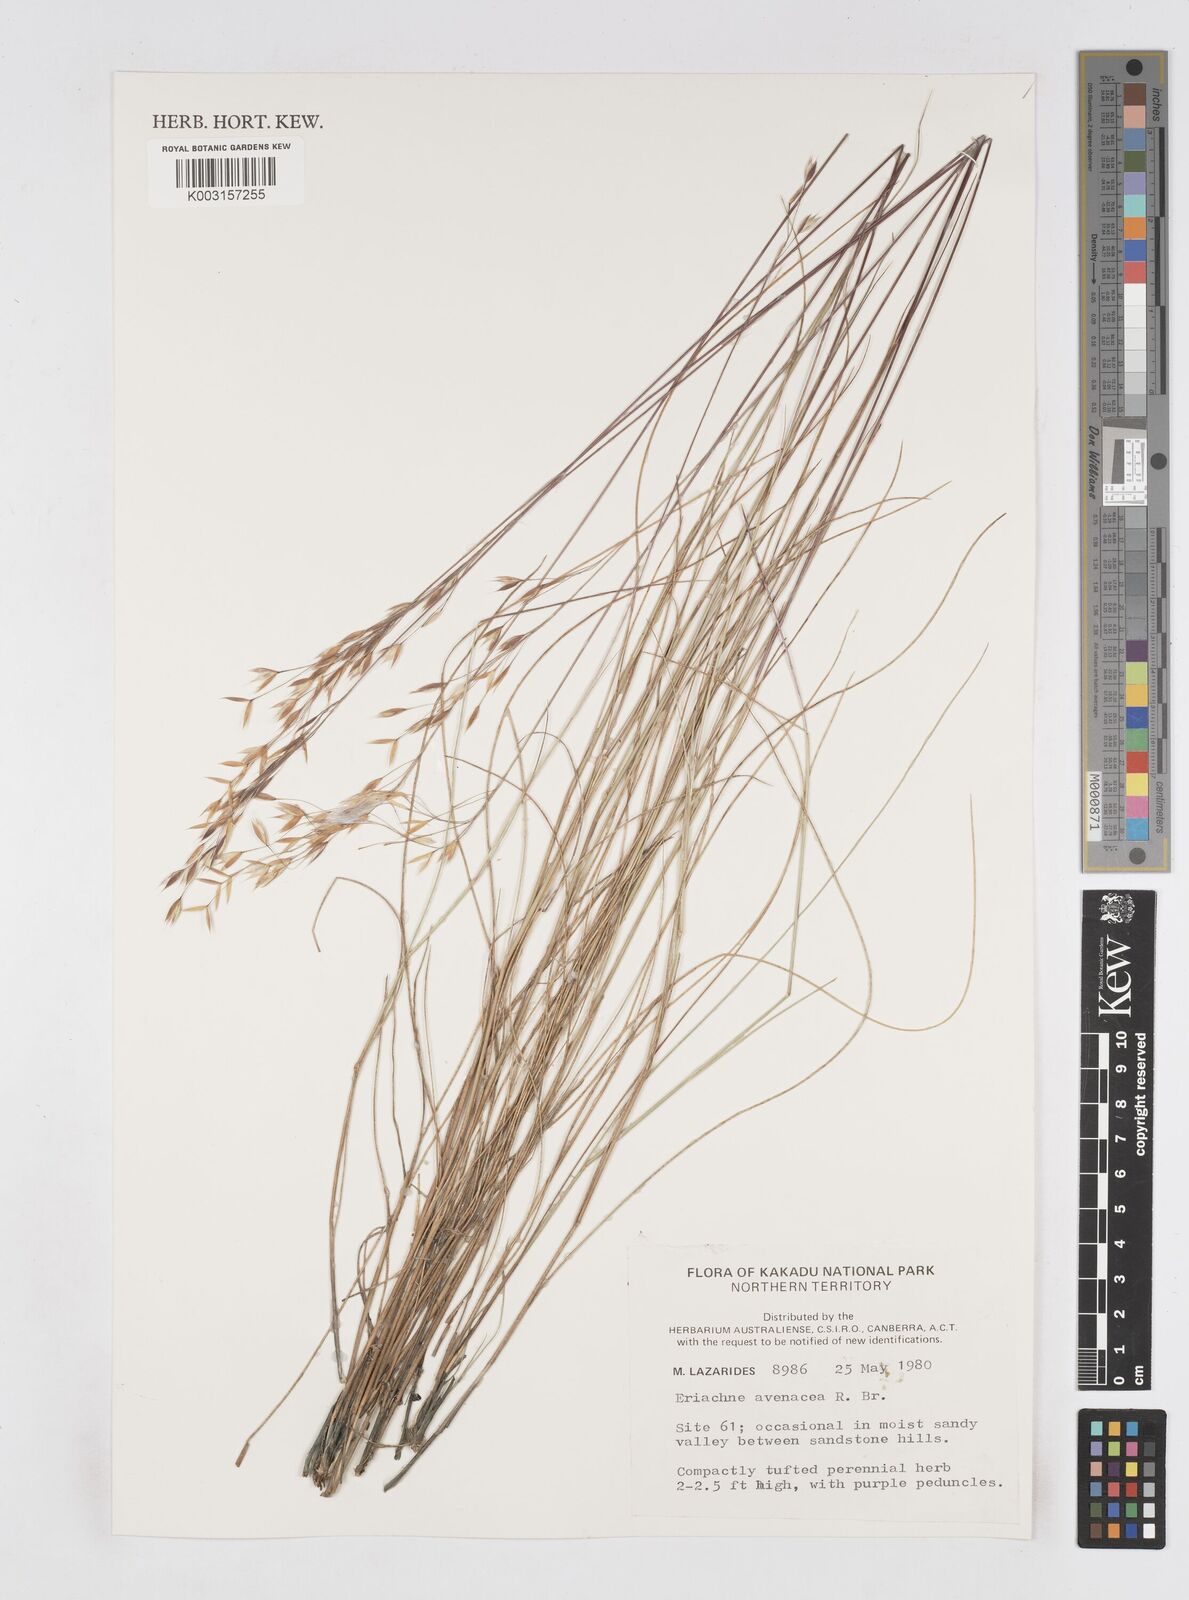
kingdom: Plantae
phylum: Tracheophyta
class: Liliopsida
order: Poales
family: Poaceae
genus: Eriachne
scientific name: Eriachne avenacea
